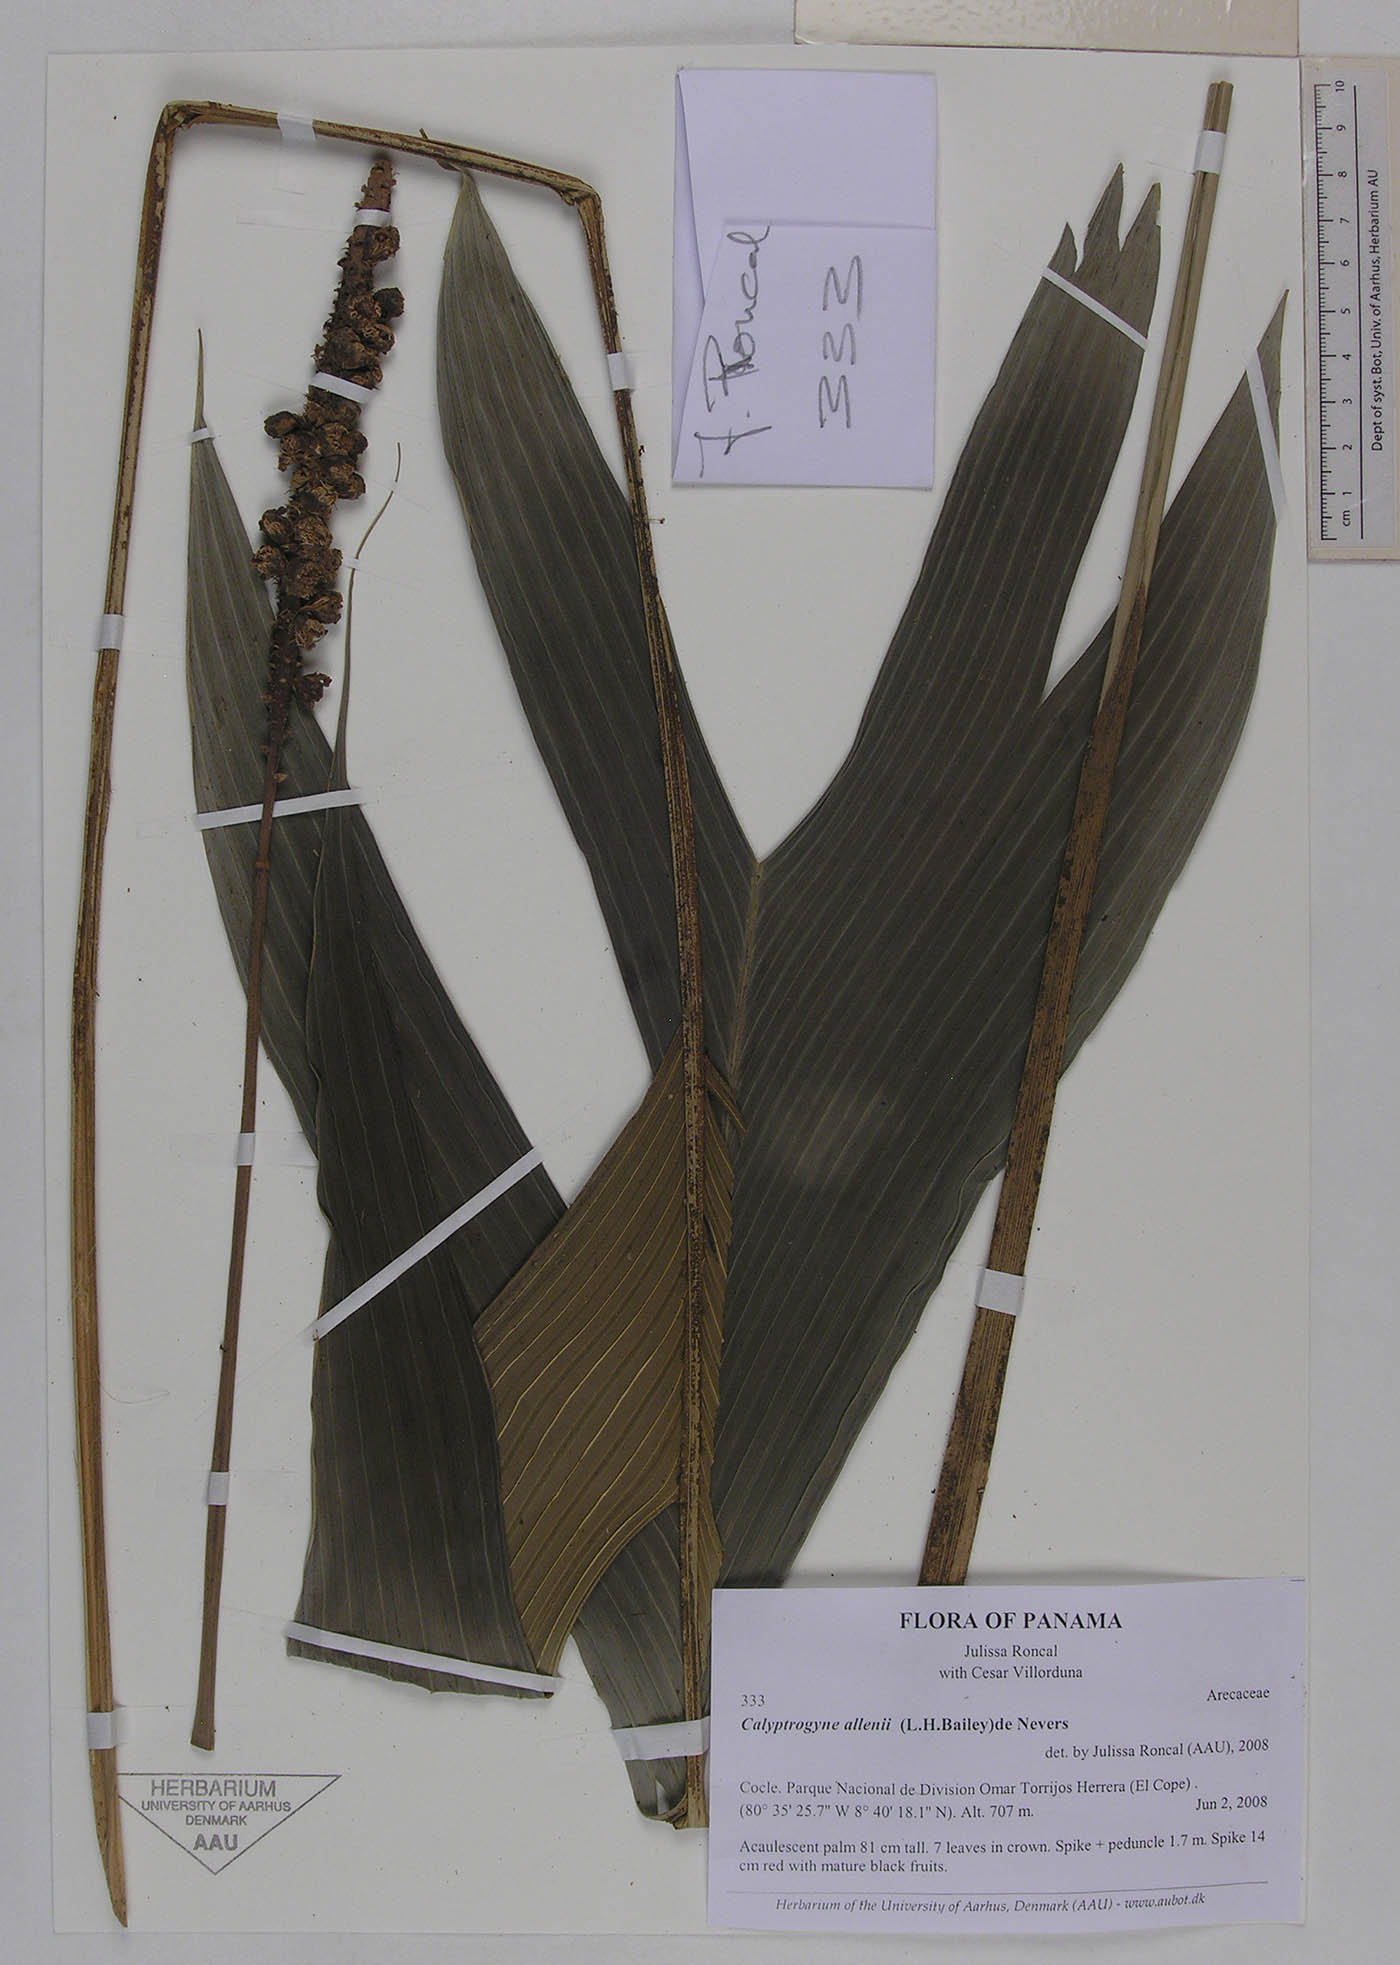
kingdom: Plantae
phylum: Tracheophyta
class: Liliopsida
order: Arecales
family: Arecaceae
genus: Calyptrogyne
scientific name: Calyptrogyne allenii
